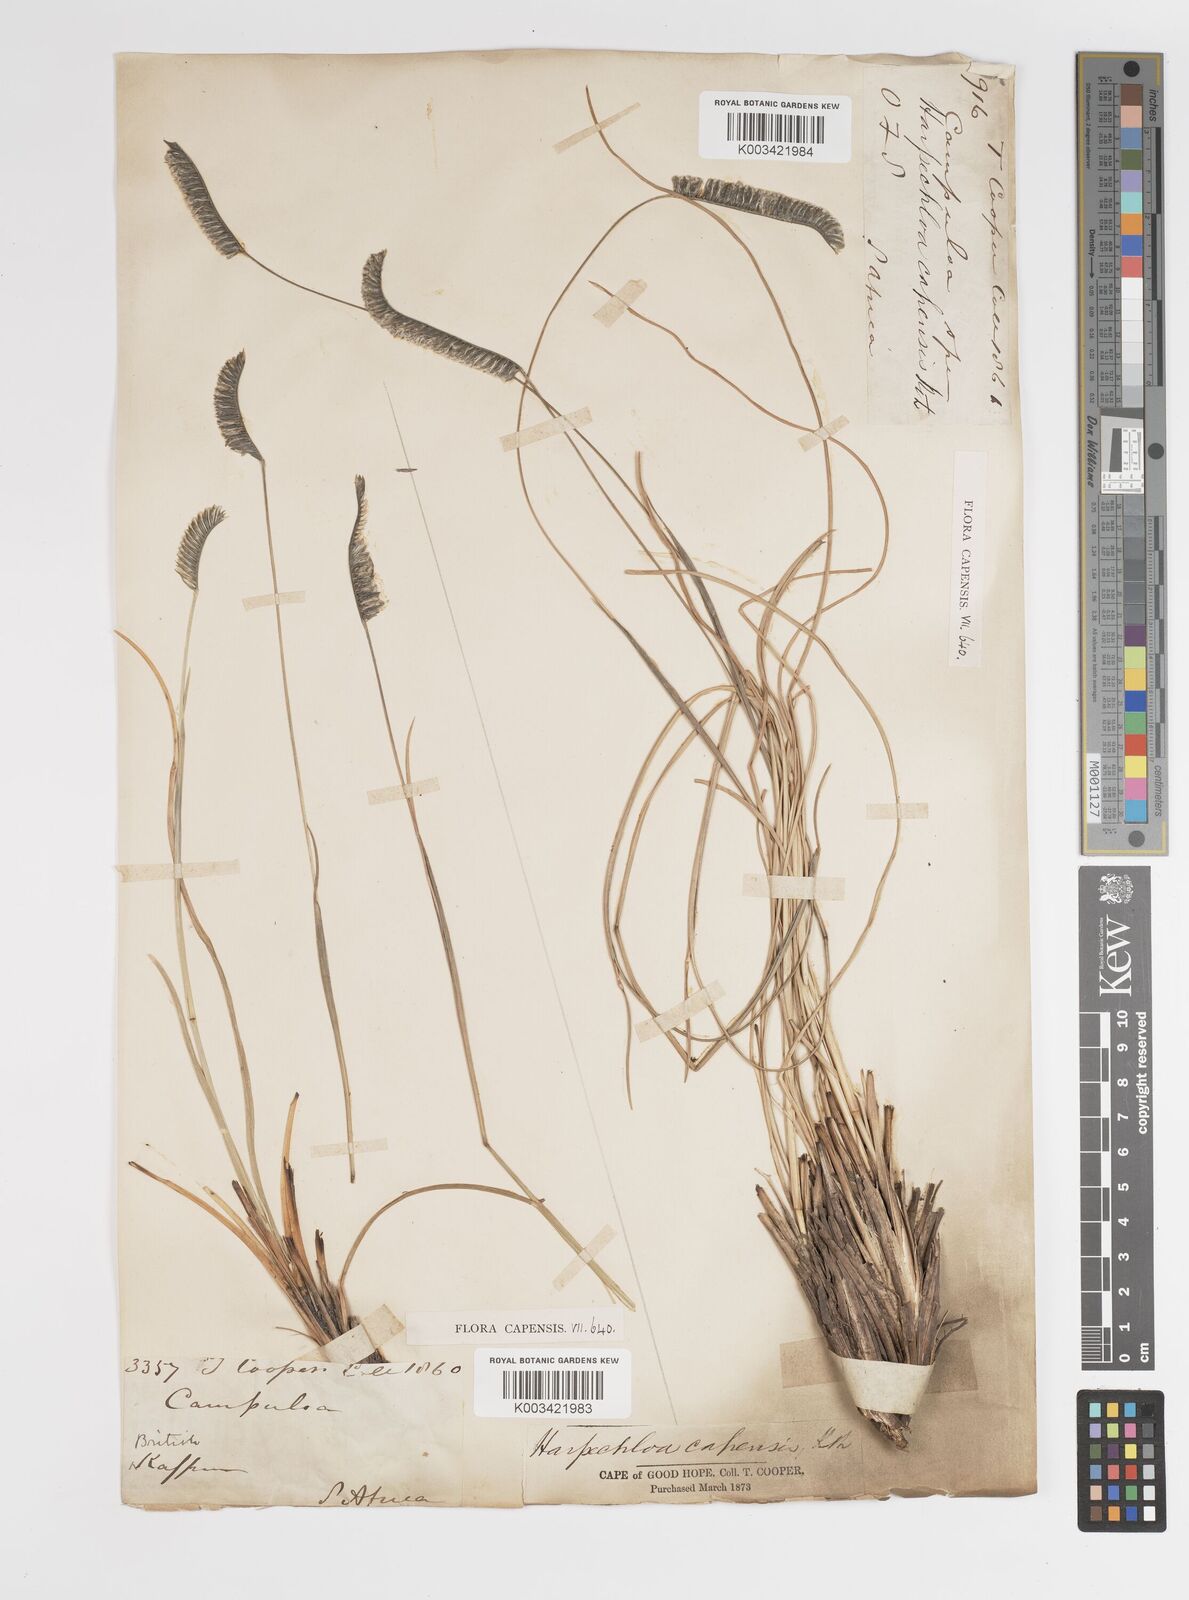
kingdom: Plantae
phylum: Tracheophyta
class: Liliopsida
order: Poales
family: Poaceae
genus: Harpochloa
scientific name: Harpochloa falx
